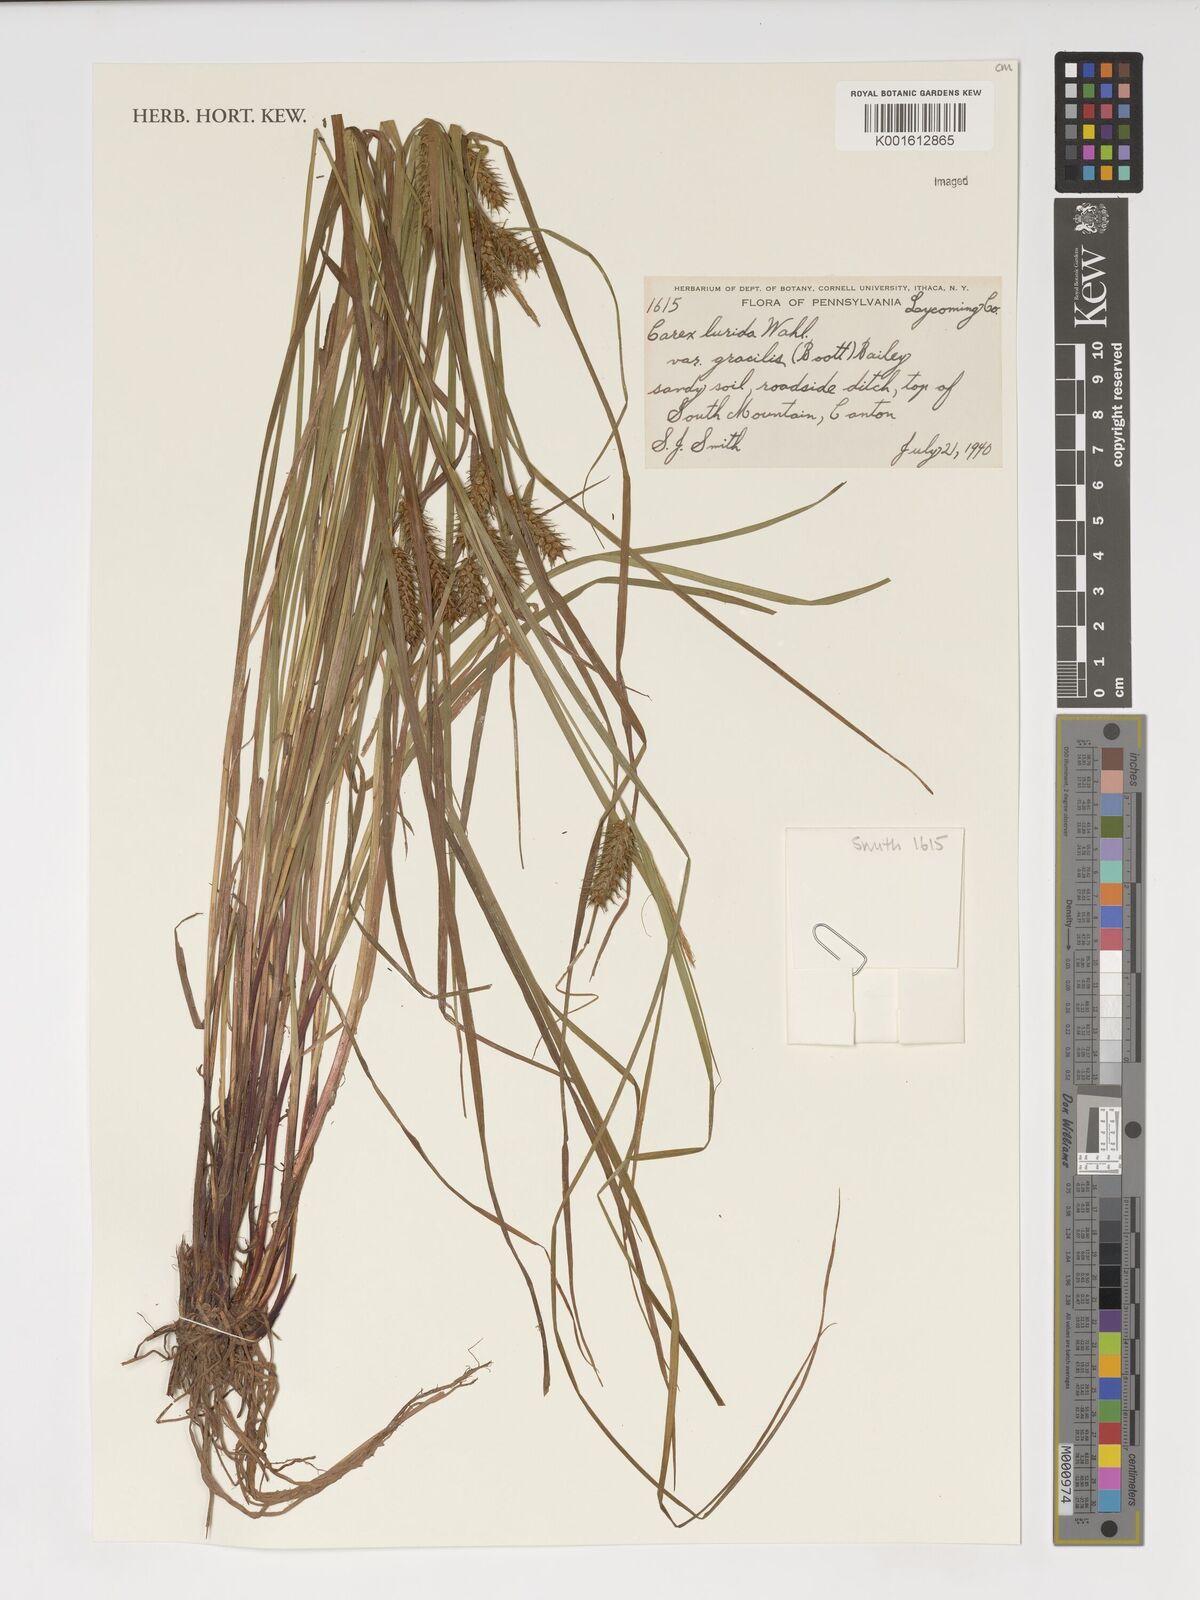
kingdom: Plantae
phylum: Tracheophyta
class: Liliopsida
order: Poales
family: Cyperaceae
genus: Carex
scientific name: Carex baileyi
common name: Bailey's sedge
